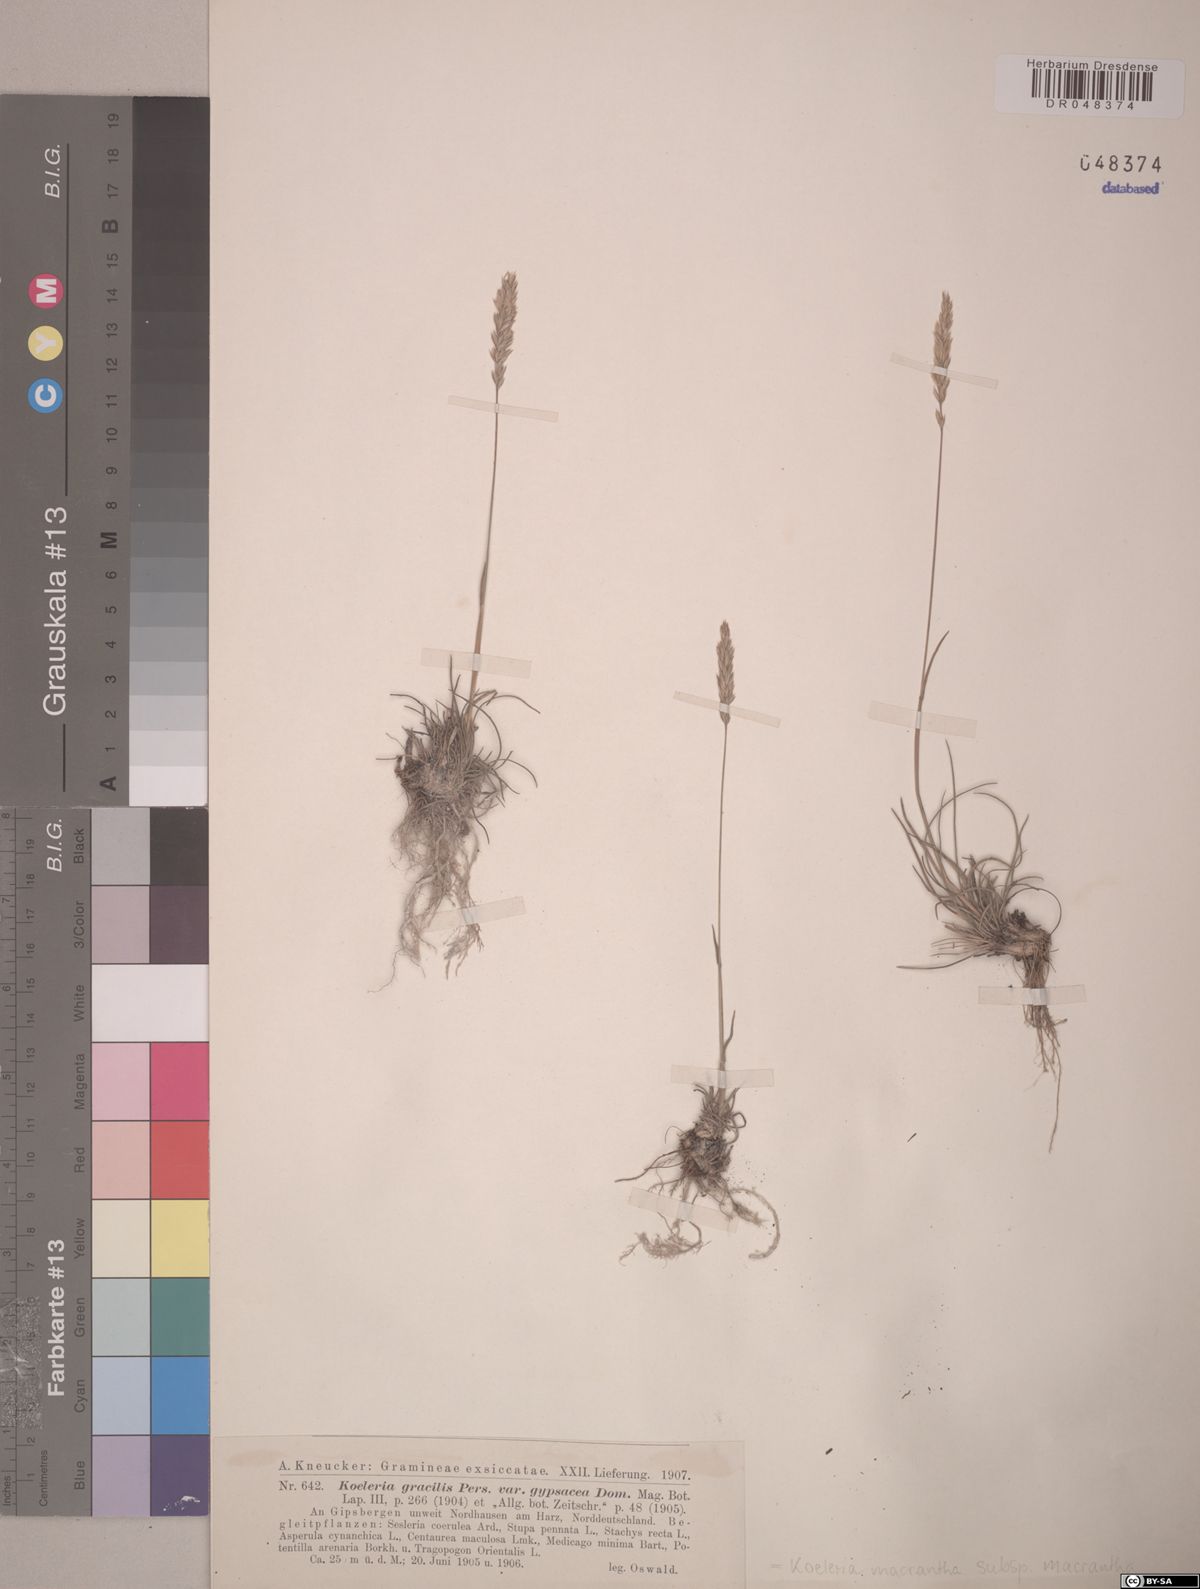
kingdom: Plantae
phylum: Tracheophyta
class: Liliopsida
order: Poales
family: Poaceae
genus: Koeleria
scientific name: Koeleria macrantha
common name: Crested hair-grass
